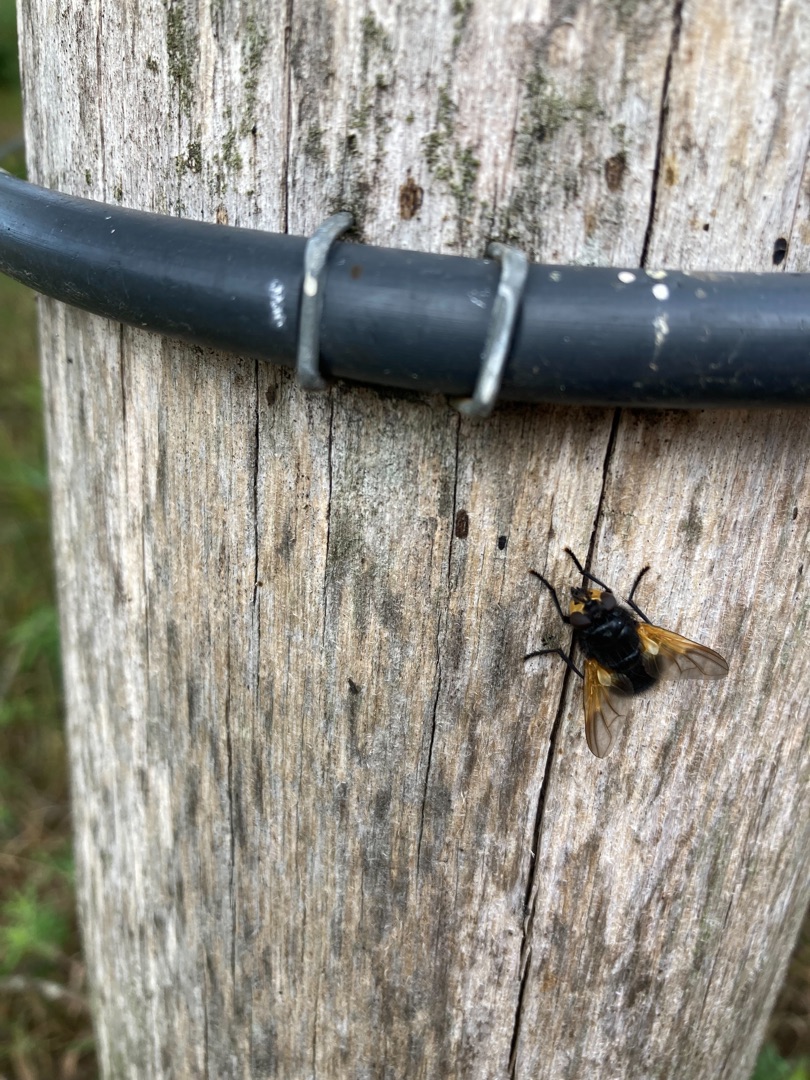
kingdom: Animalia
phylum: Arthropoda
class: Insecta
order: Diptera
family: Muscidae
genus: Mesembrina
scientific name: Mesembrina meridiana
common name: Gulvinget flue
